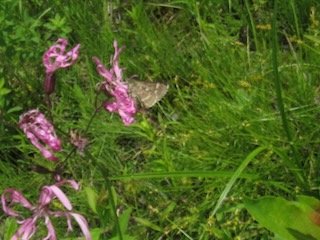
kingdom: Animalia
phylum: Arthropoda
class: Insecta
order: Lepidoptera
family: Hesperiidae
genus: Mastor
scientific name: Mastor hegon
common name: Pepper and Salt Skipper
